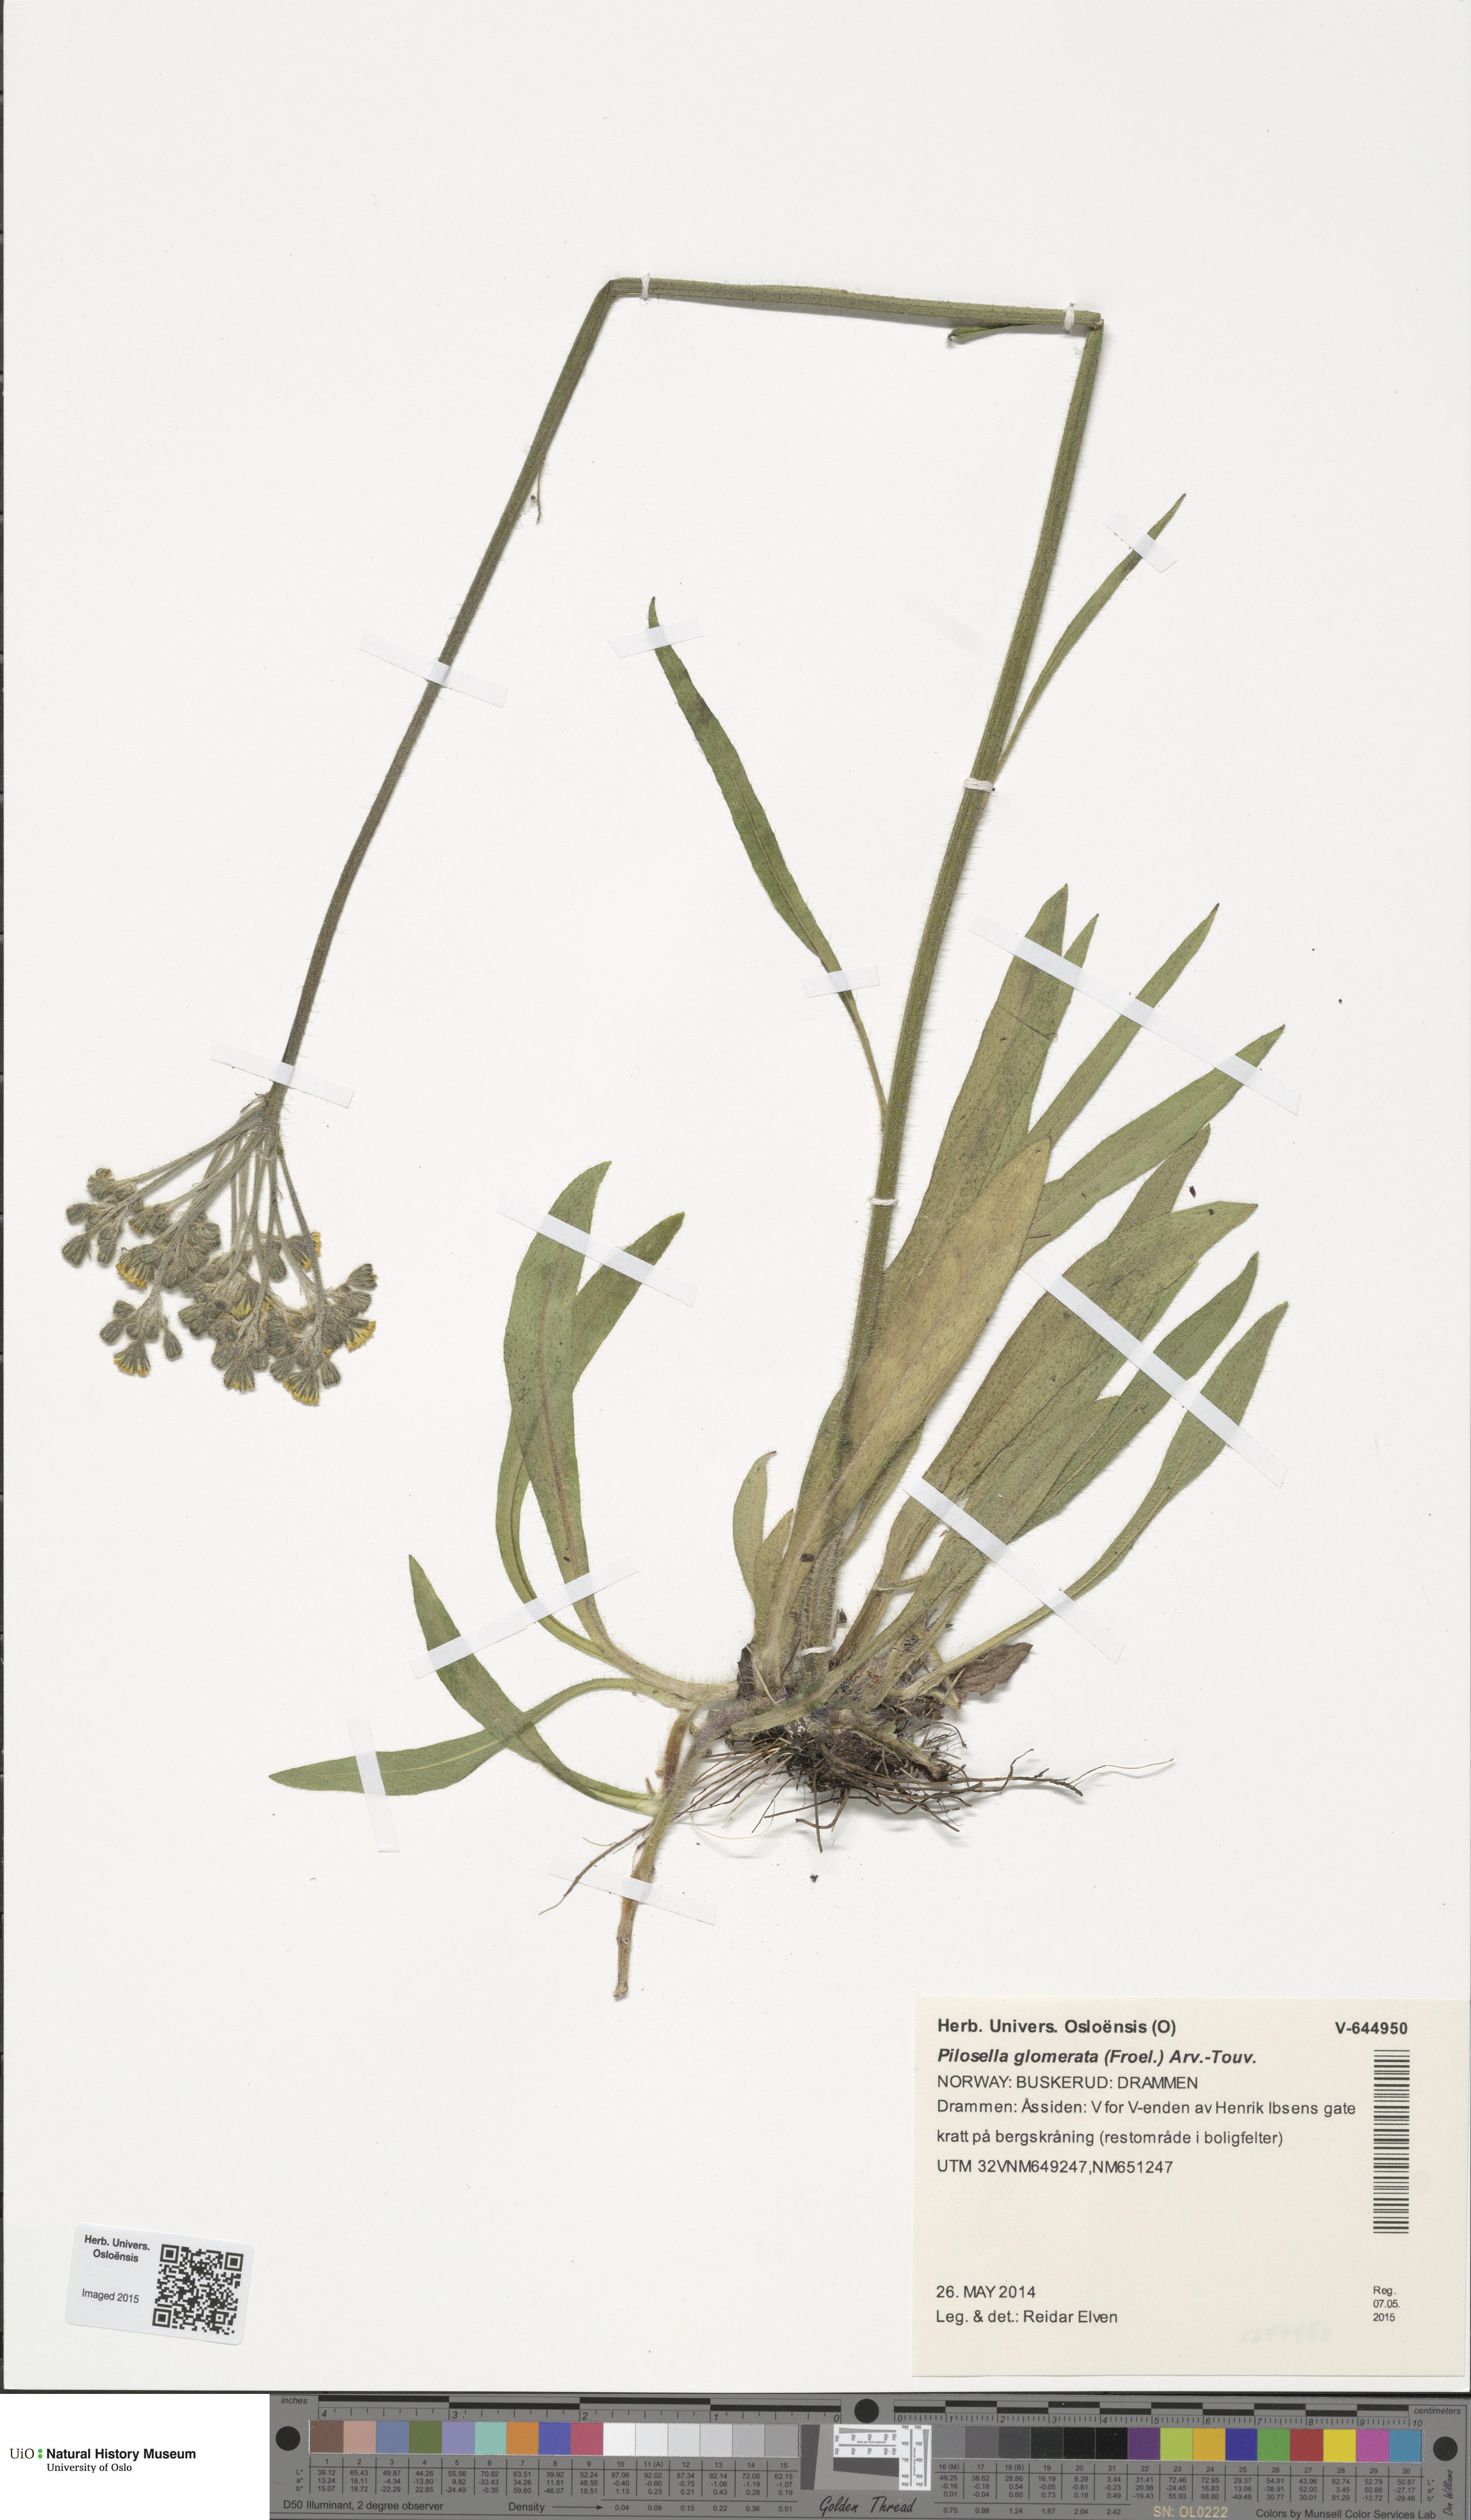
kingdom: Plantae
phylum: Tracheophyta
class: Magnoliopsida
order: Asterales
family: Asteraceae
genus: Pilosella
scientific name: Pilosella glomerata
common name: Queen devil hawkweed
